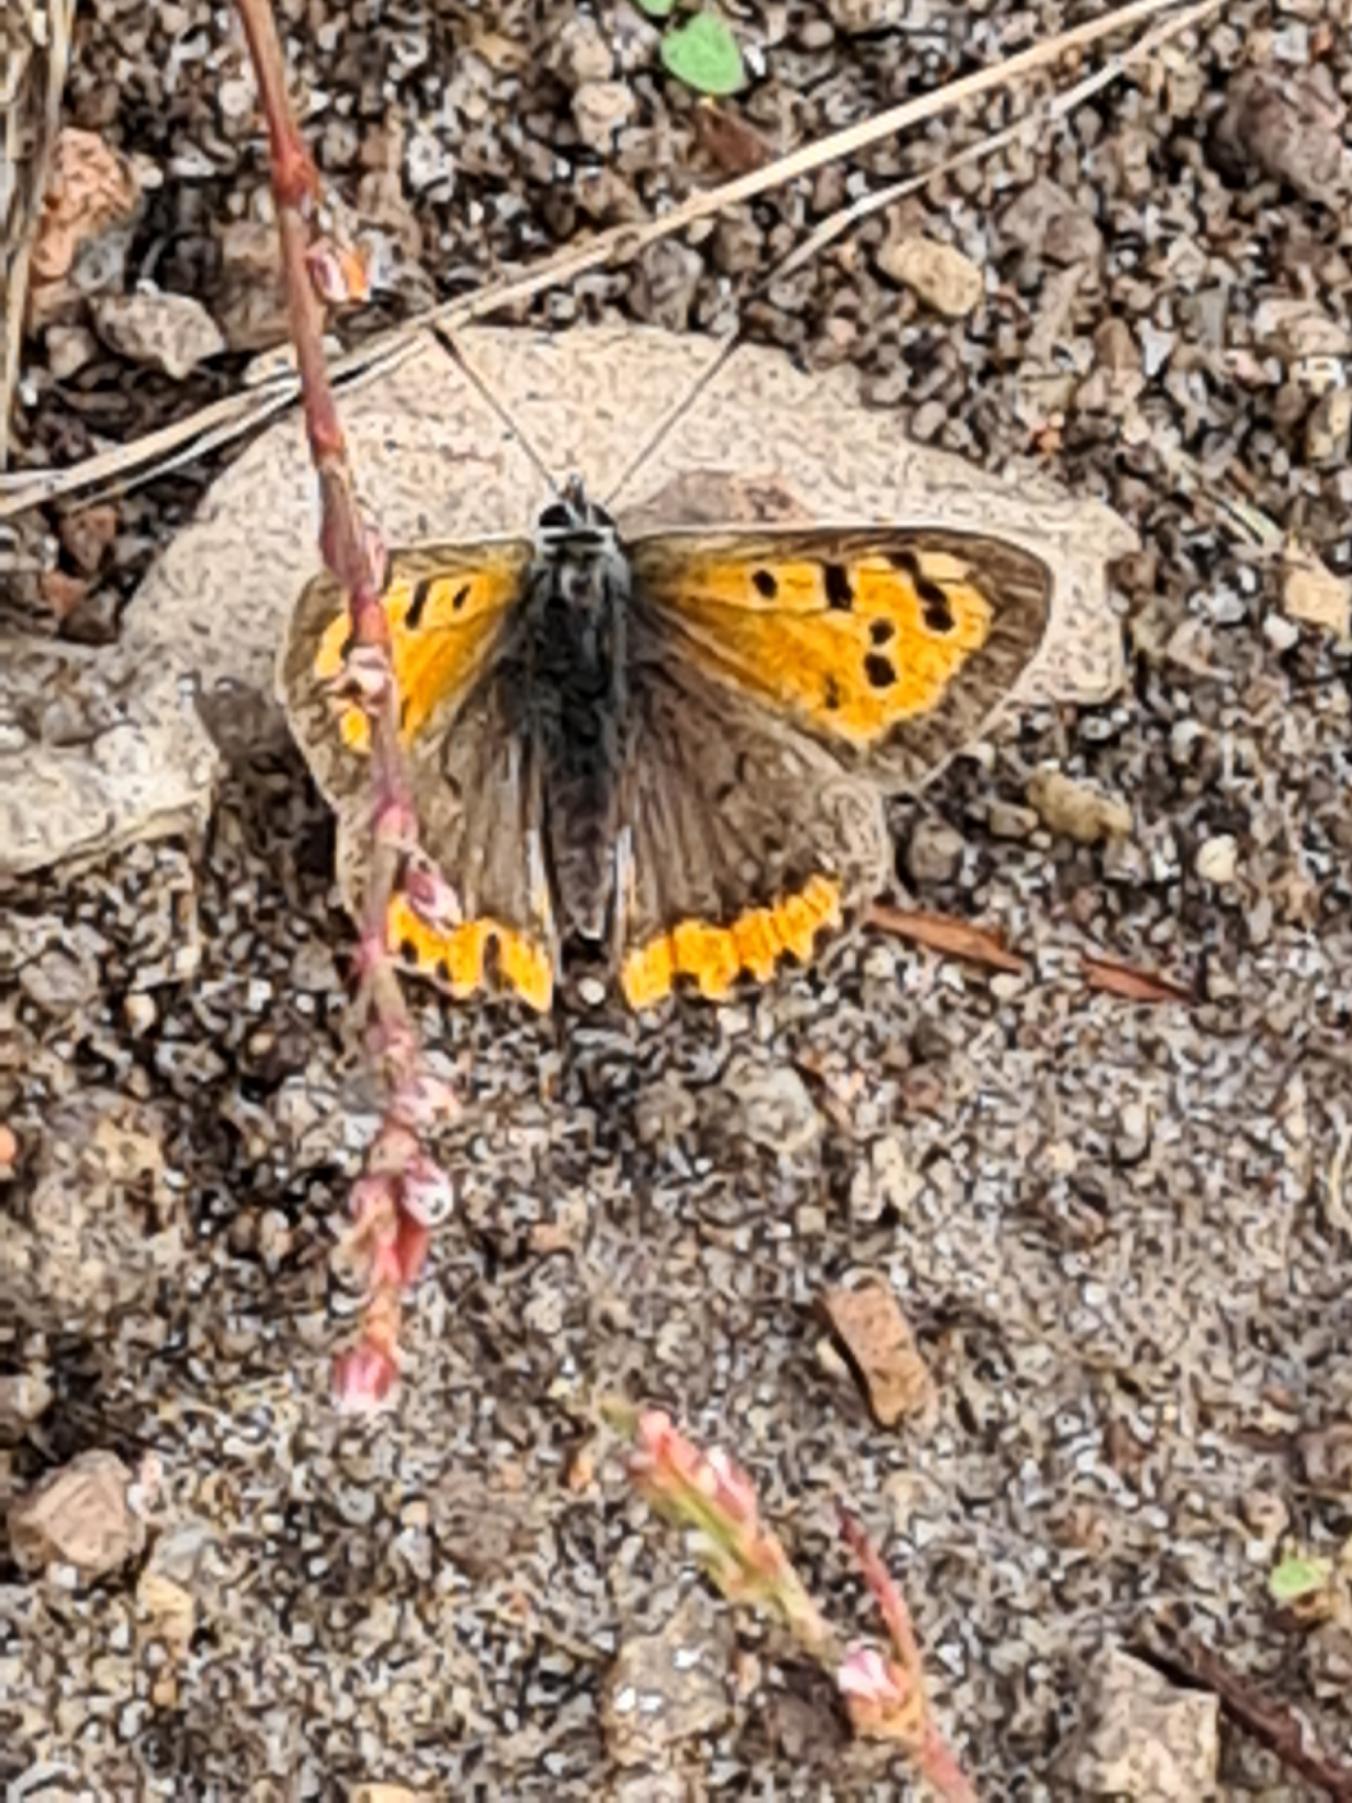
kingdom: Animalia
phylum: Arthropoda
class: Insecta
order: Lepidoptera
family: Lycaenidae
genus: Lycaena
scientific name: Lycaena phlaeas
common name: Lille ildfugl
